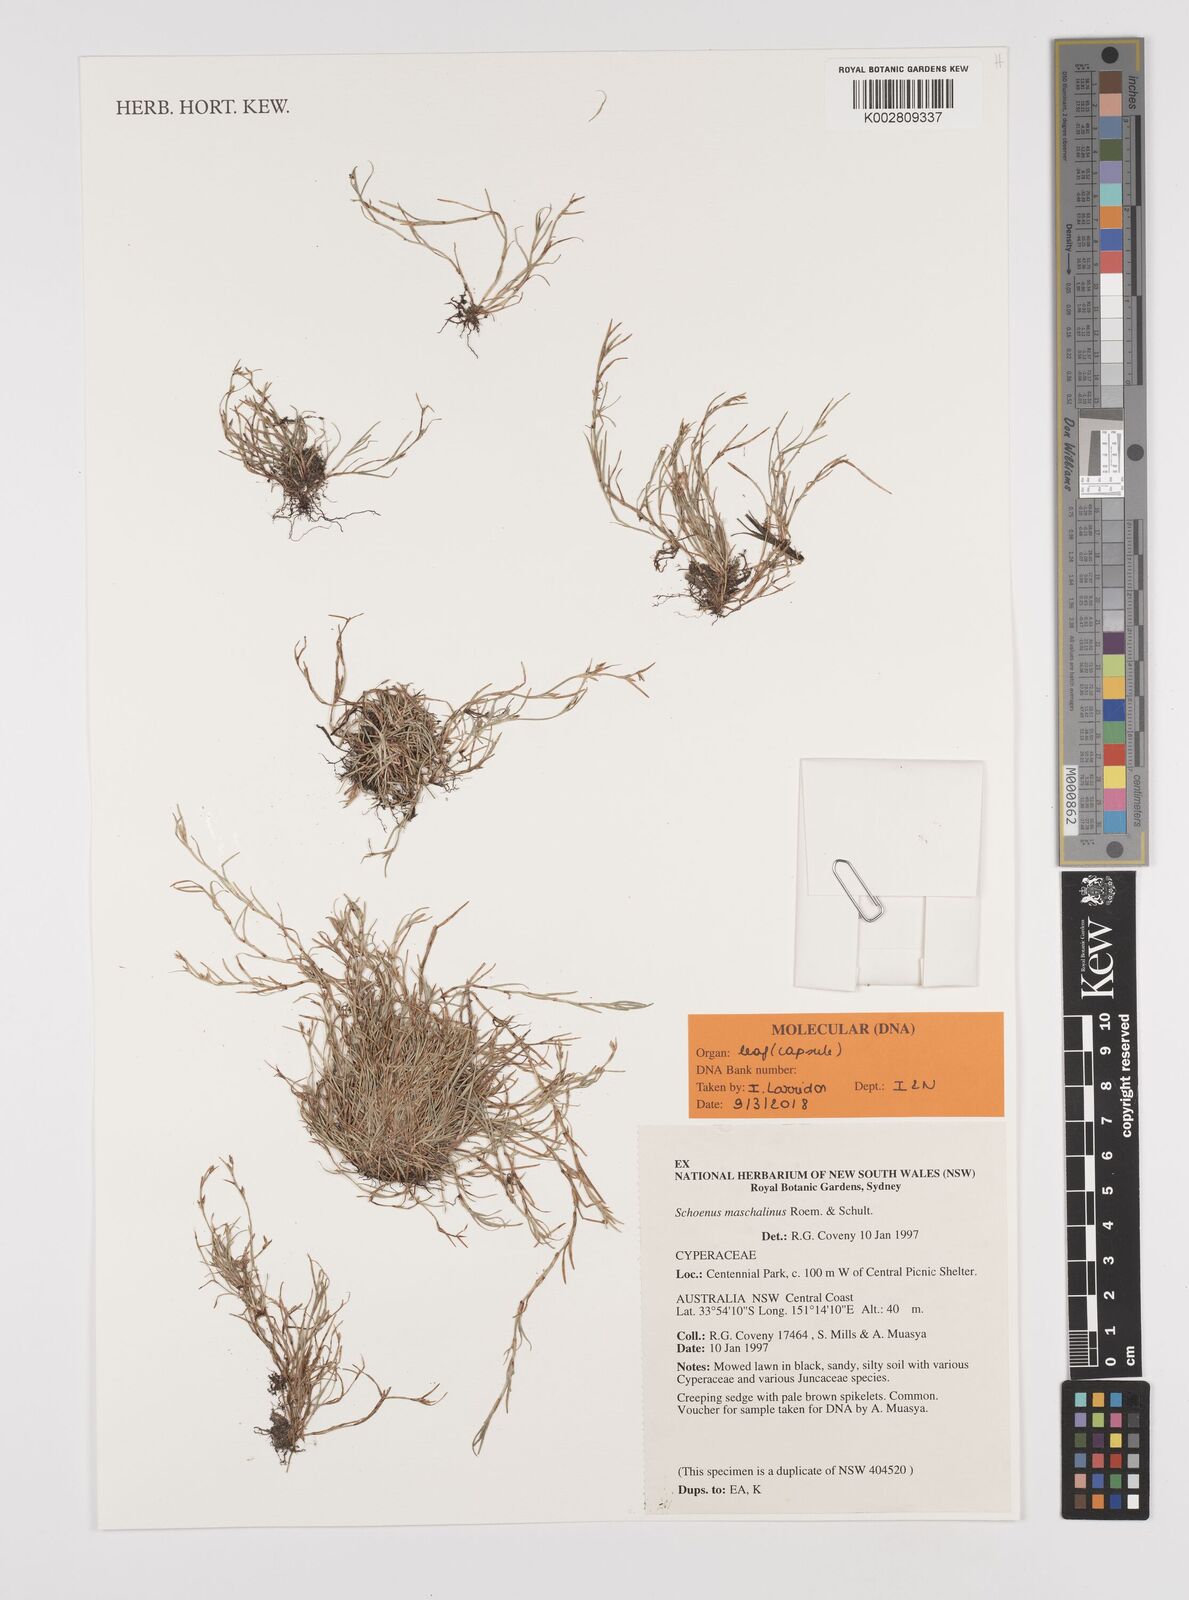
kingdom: Plantae
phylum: Tracheophyta
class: Liliopsida
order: Poales
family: Cyperaceae
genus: Schoenus
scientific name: Schoenus maschalinus
